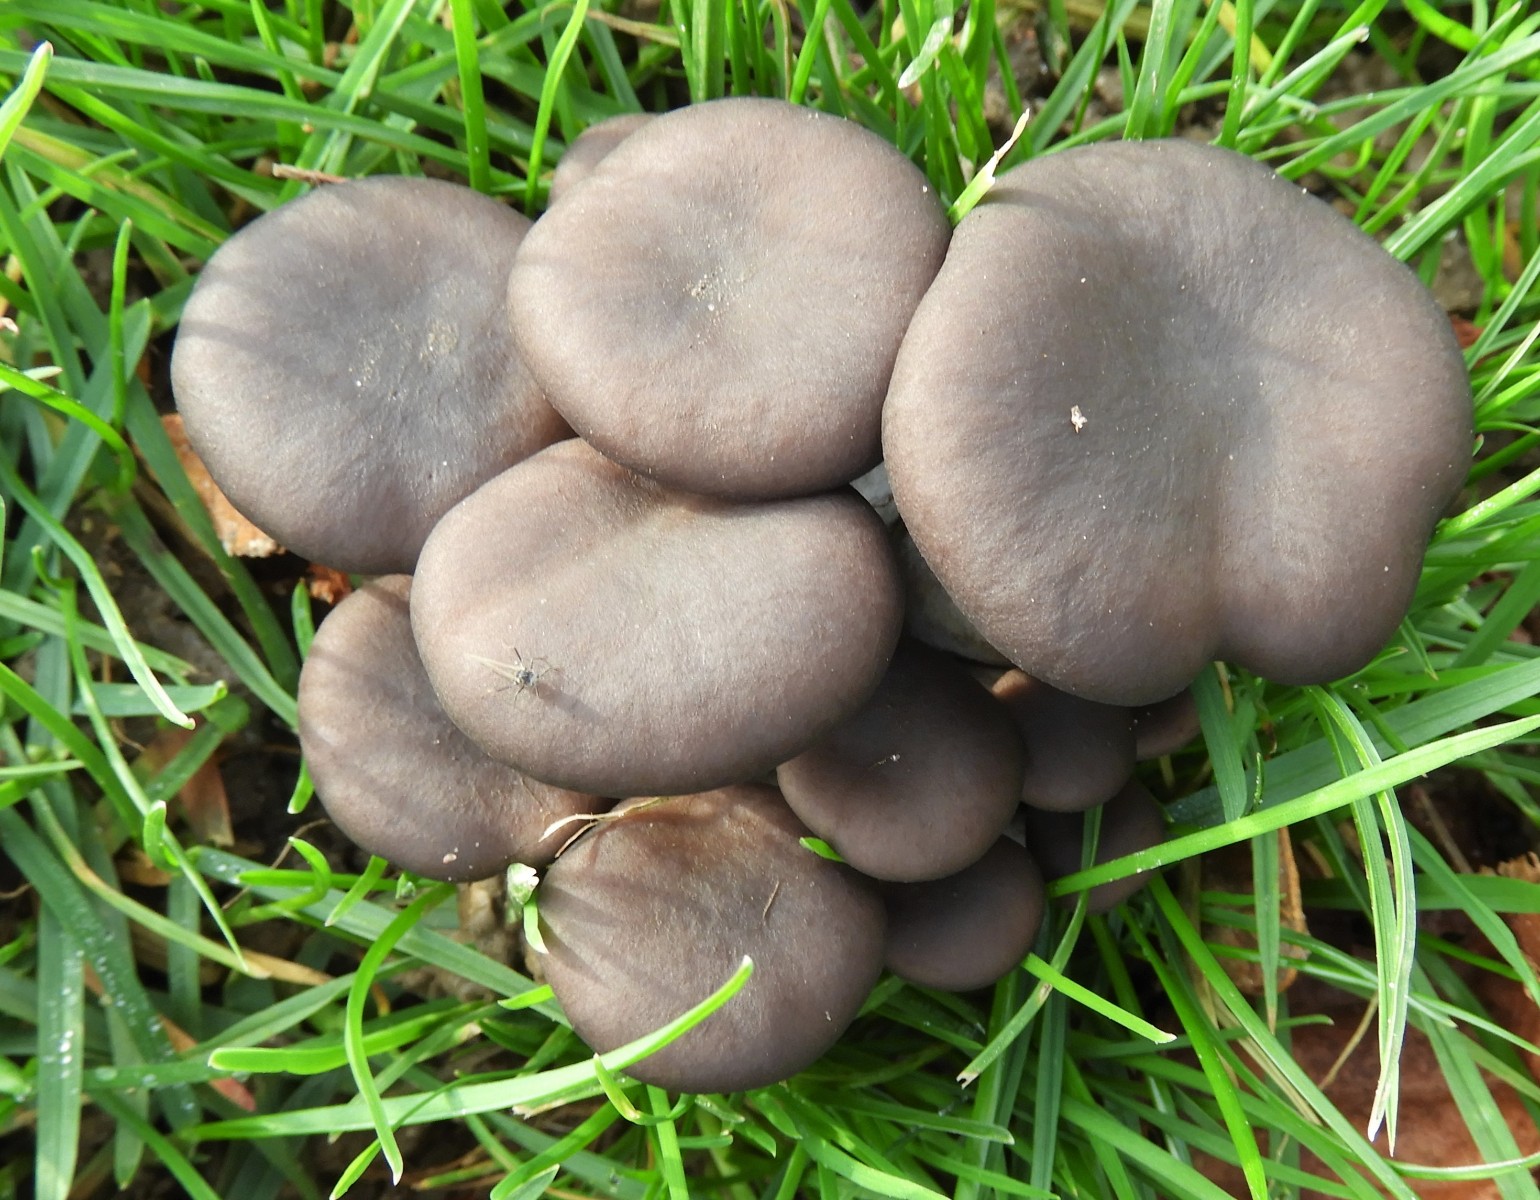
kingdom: Fungi
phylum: Basidiomycota
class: Agaricomycetes
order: Agaricales
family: Pleurotaceae
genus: Pleurotus
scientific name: Pleurotus ostreatus
